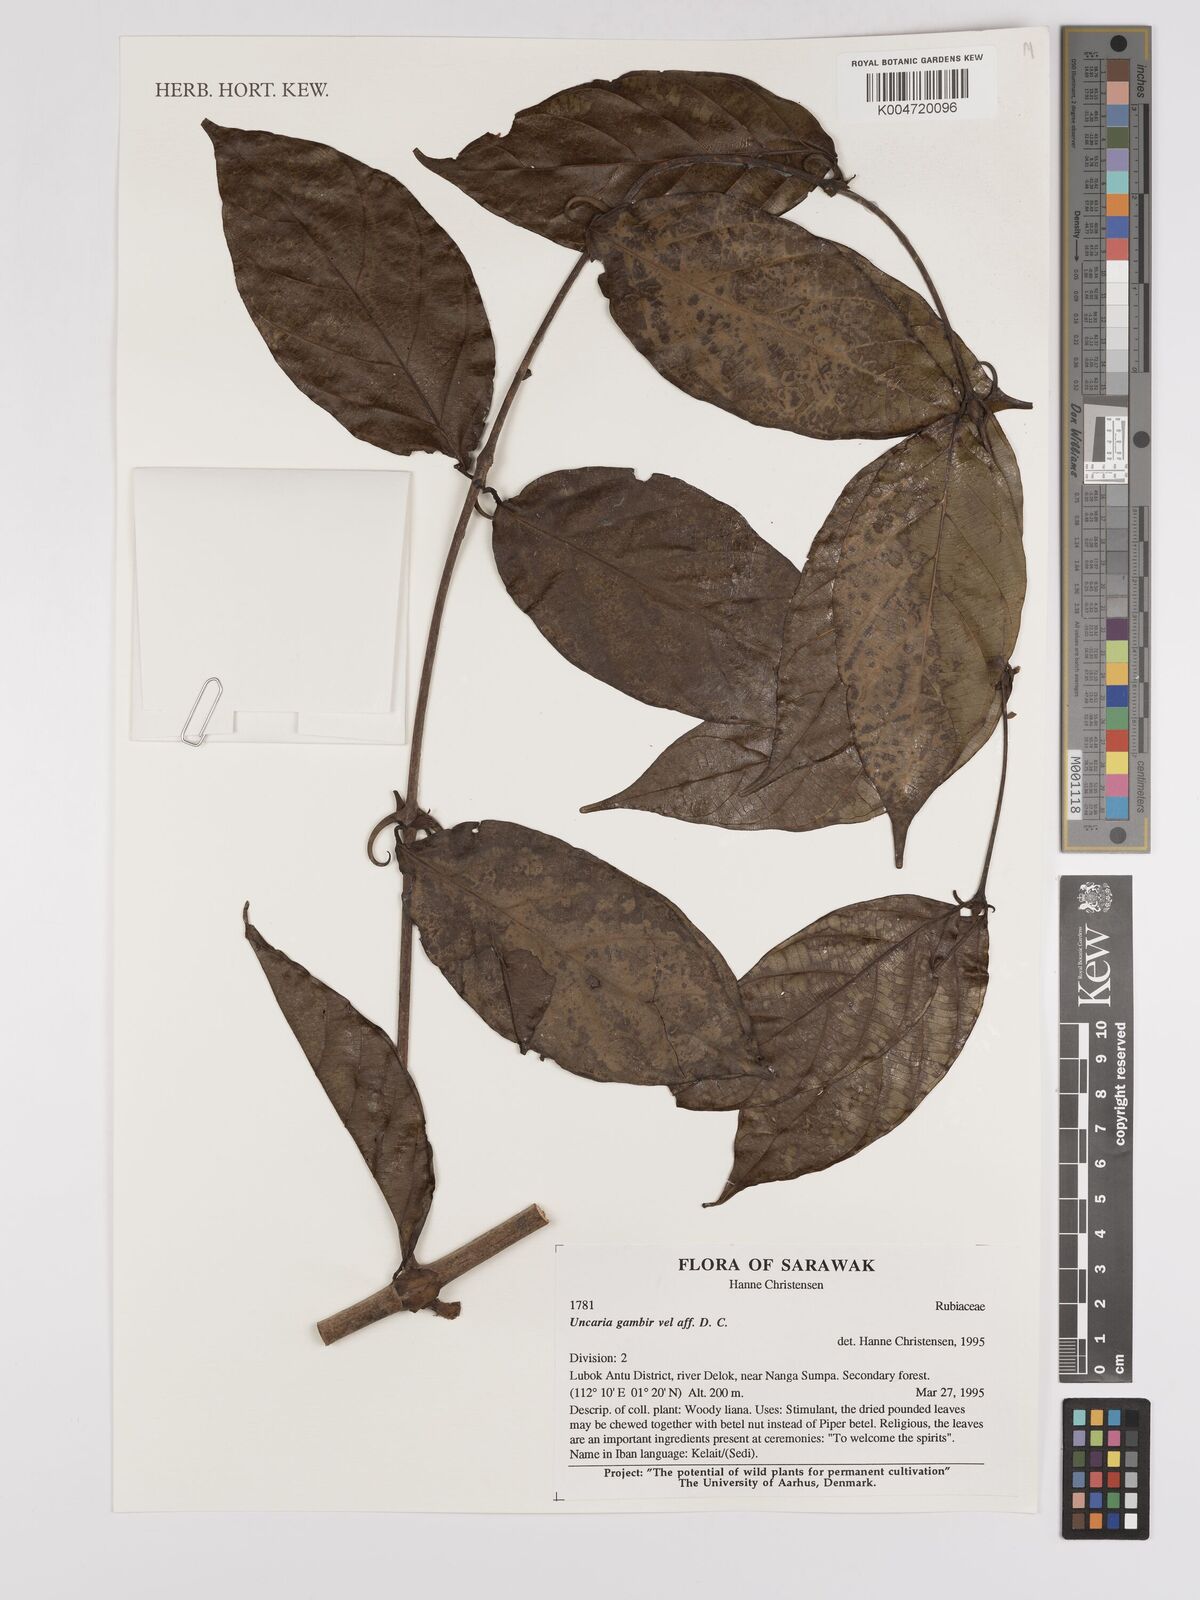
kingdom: Plantae
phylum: Tracheophyta
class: Magnoliopsida
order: Gentianales
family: Rubiaceae
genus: Uncaria
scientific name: Uncaria
